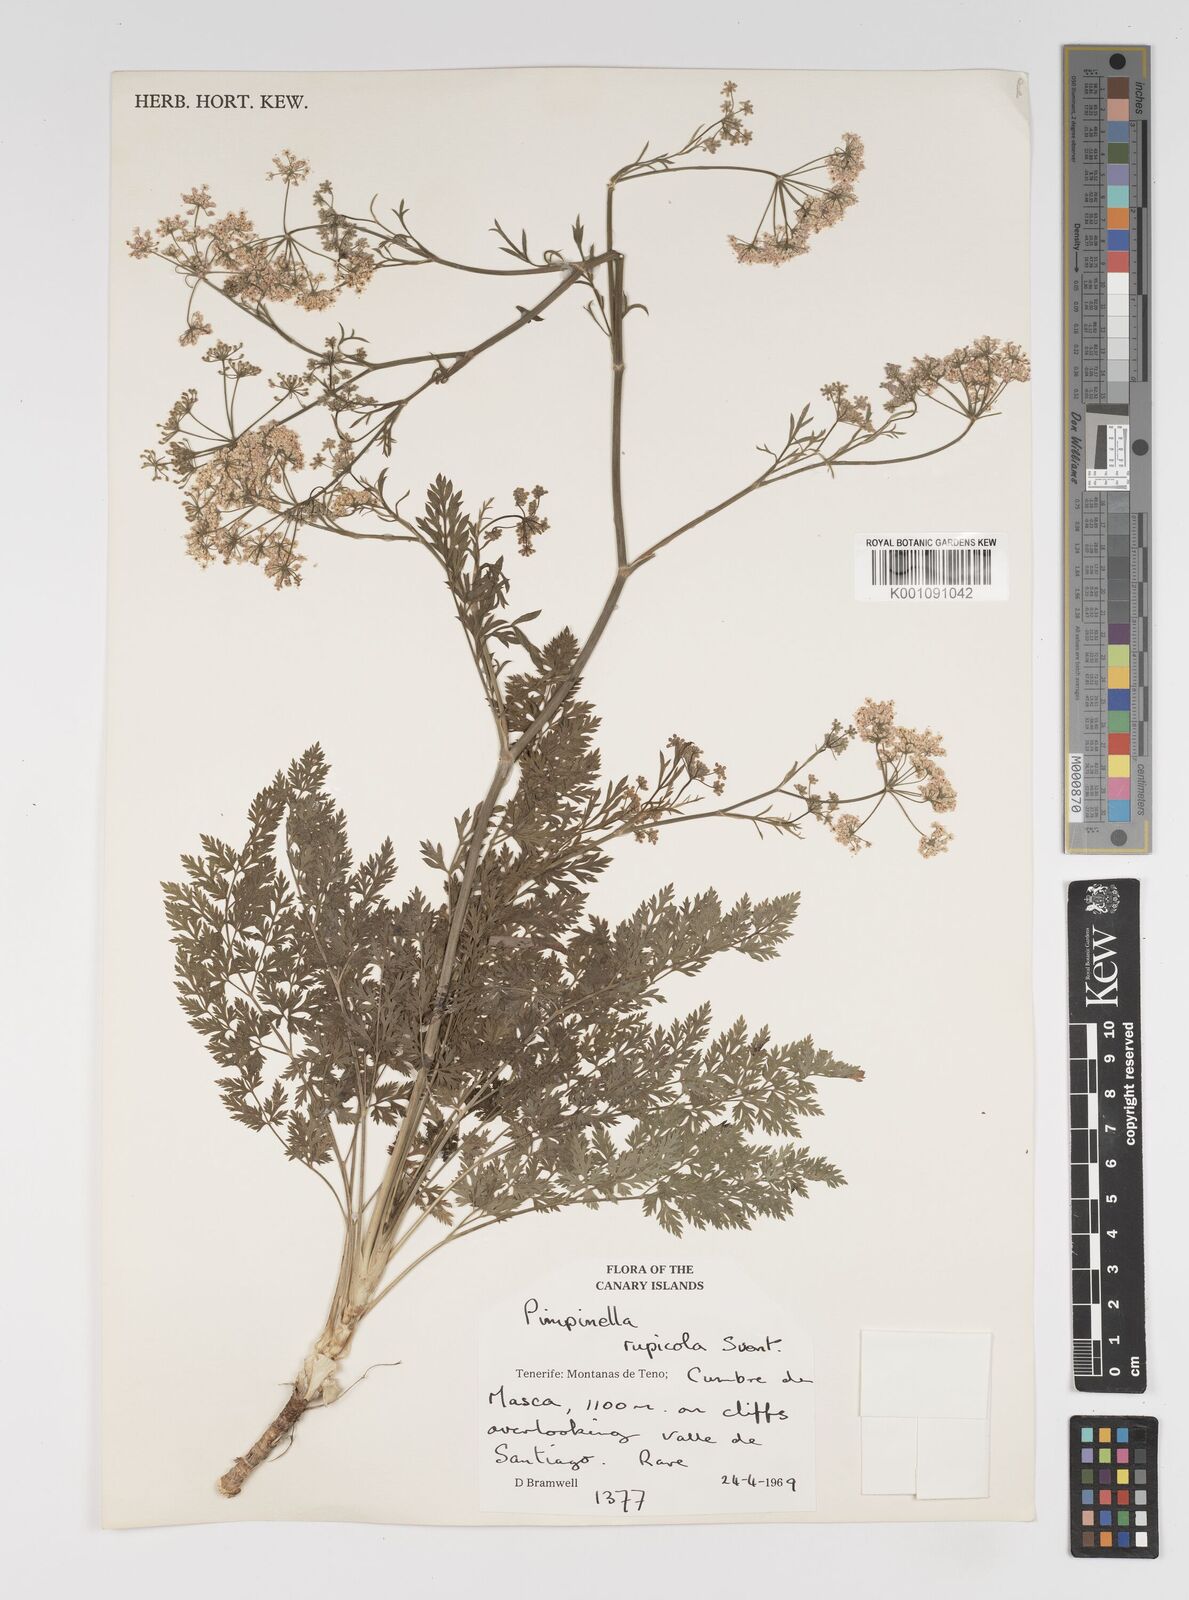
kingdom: Plantae
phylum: Tracheophyta
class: Magnoliopsida
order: Apiales
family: Apiaceae
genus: Pimpinella
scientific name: Pimpinella
